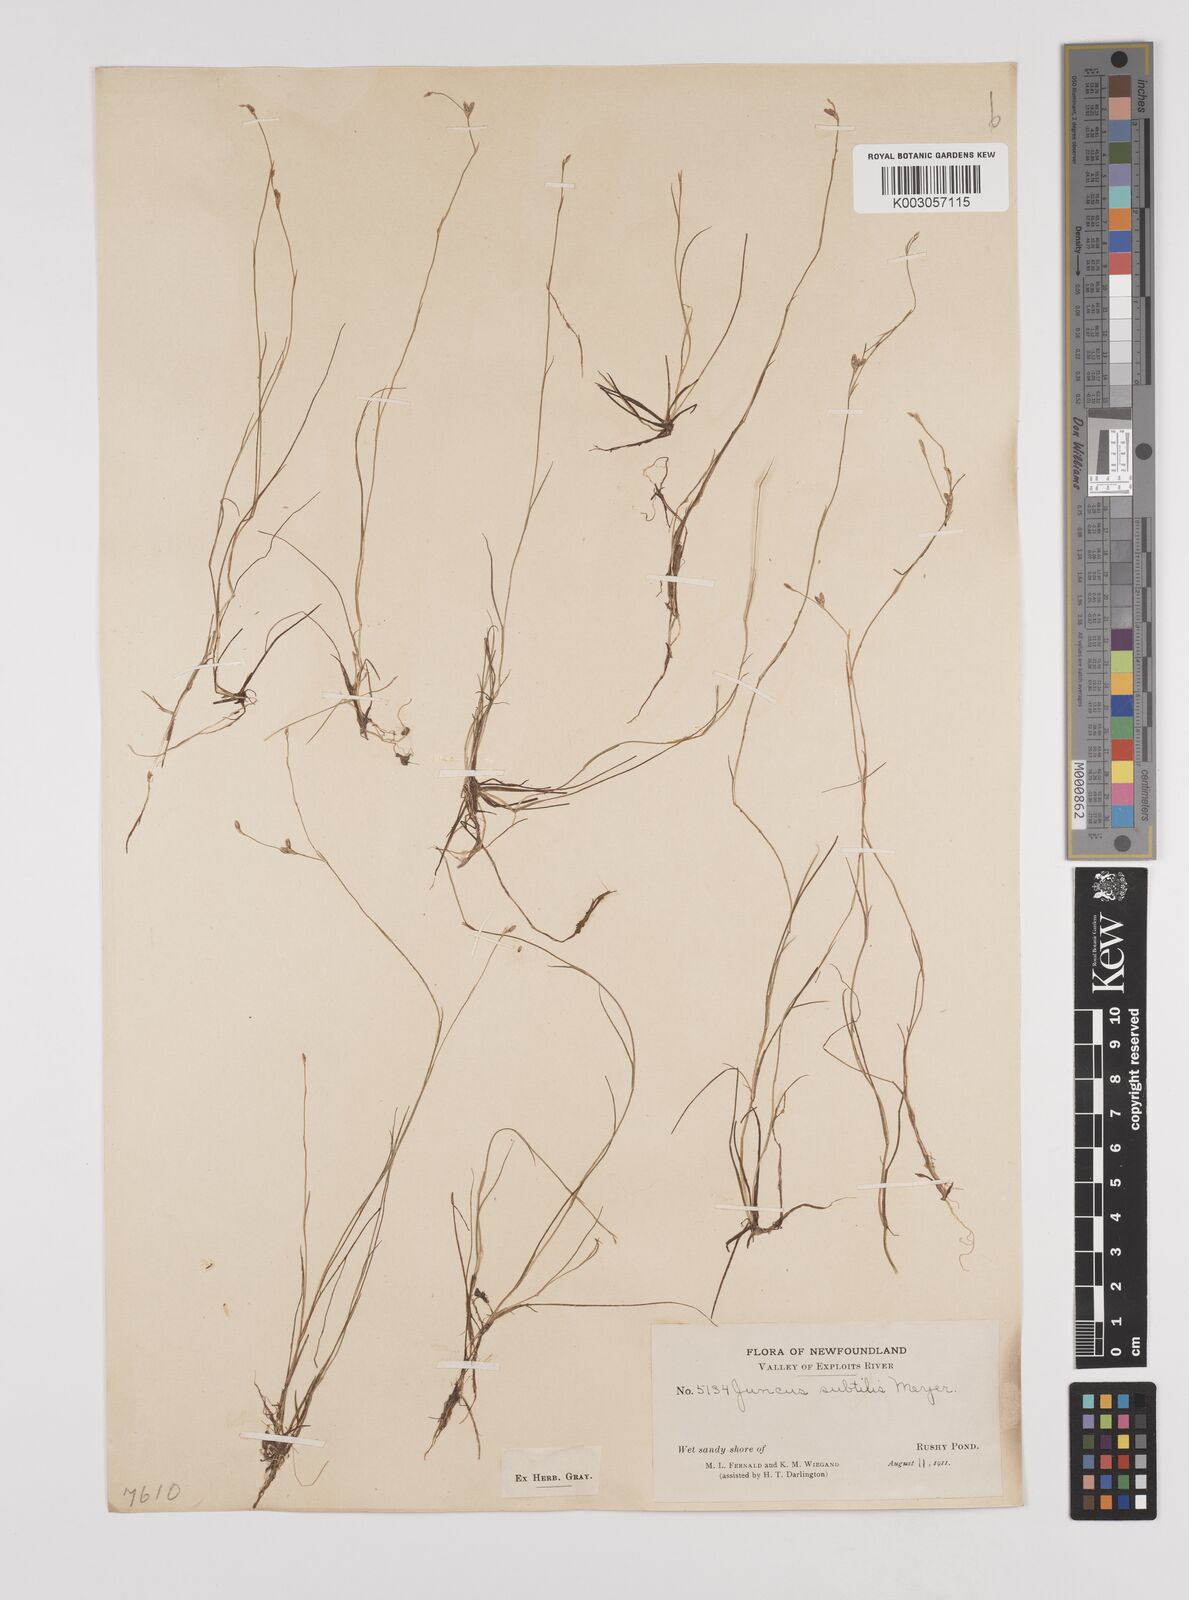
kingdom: Plantae
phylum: Tracheophyta
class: Liliopsida
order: Poales
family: Juncaceae
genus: Juncus
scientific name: Juncus subtilis
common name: Creeping rush
